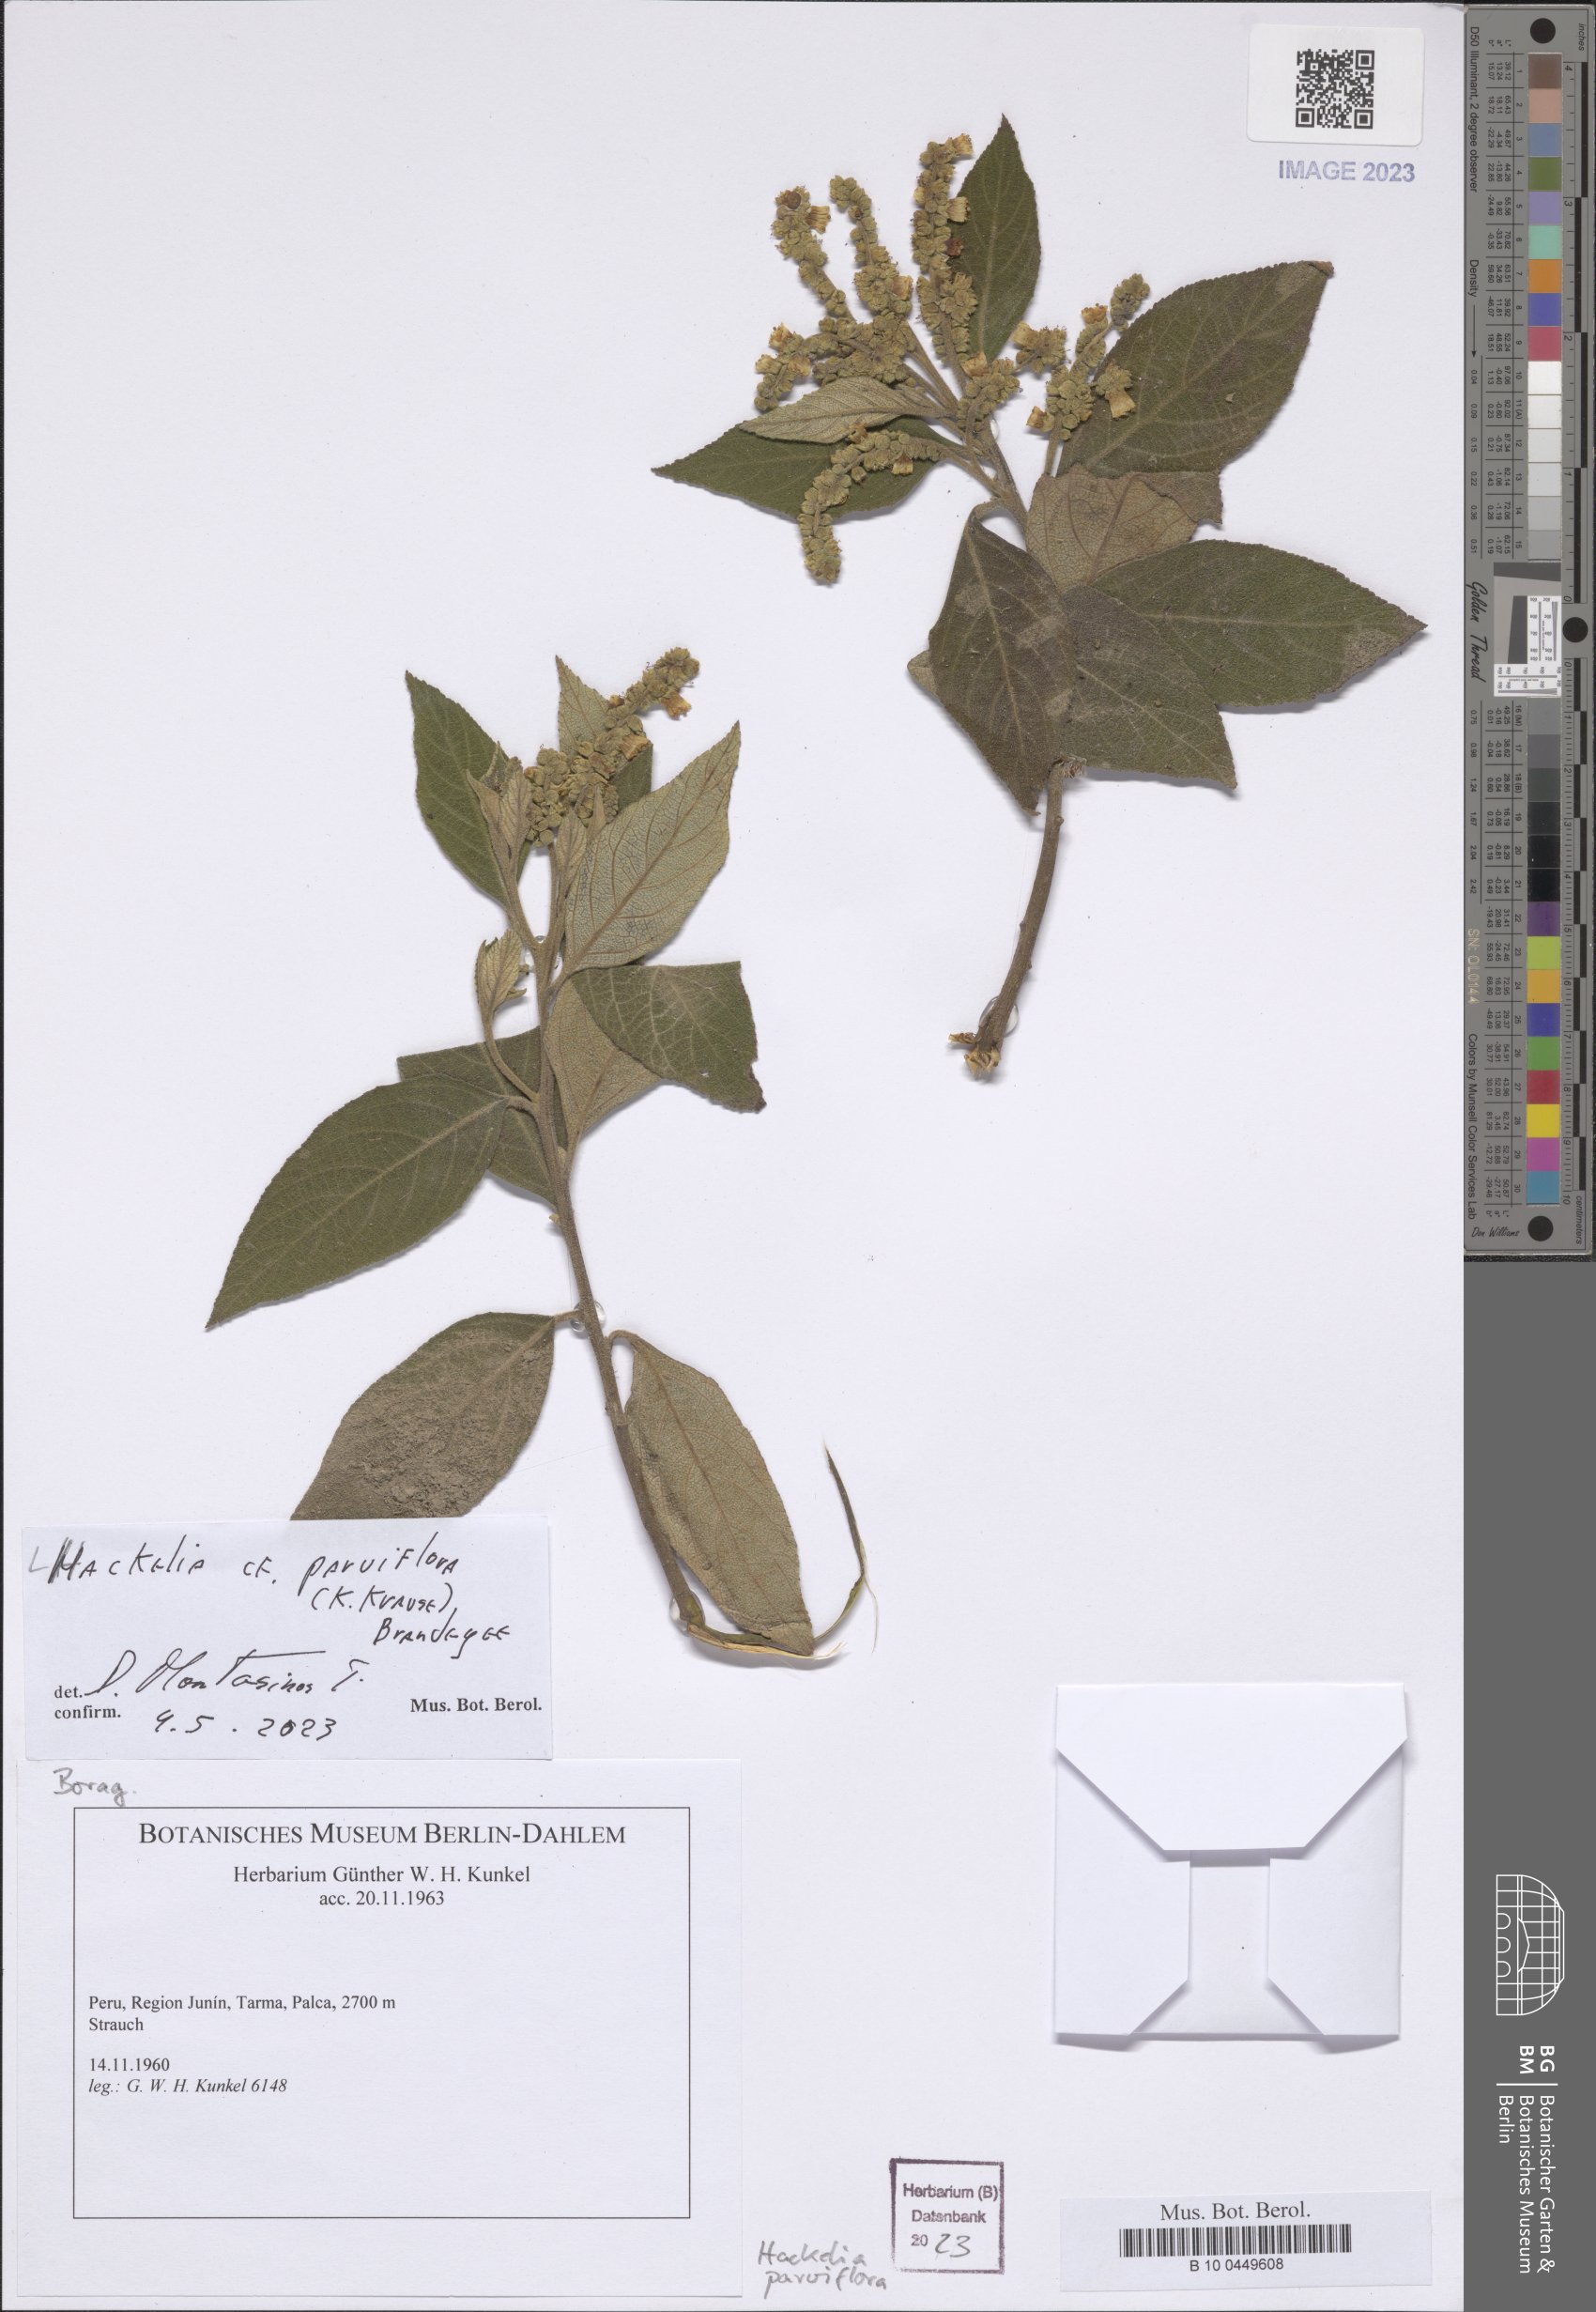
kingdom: Plantae
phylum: Tracheophyta
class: Magnoliopsida
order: Boraginales
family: Boraginaceae
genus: Hackelia
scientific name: Hackelia revoluta
